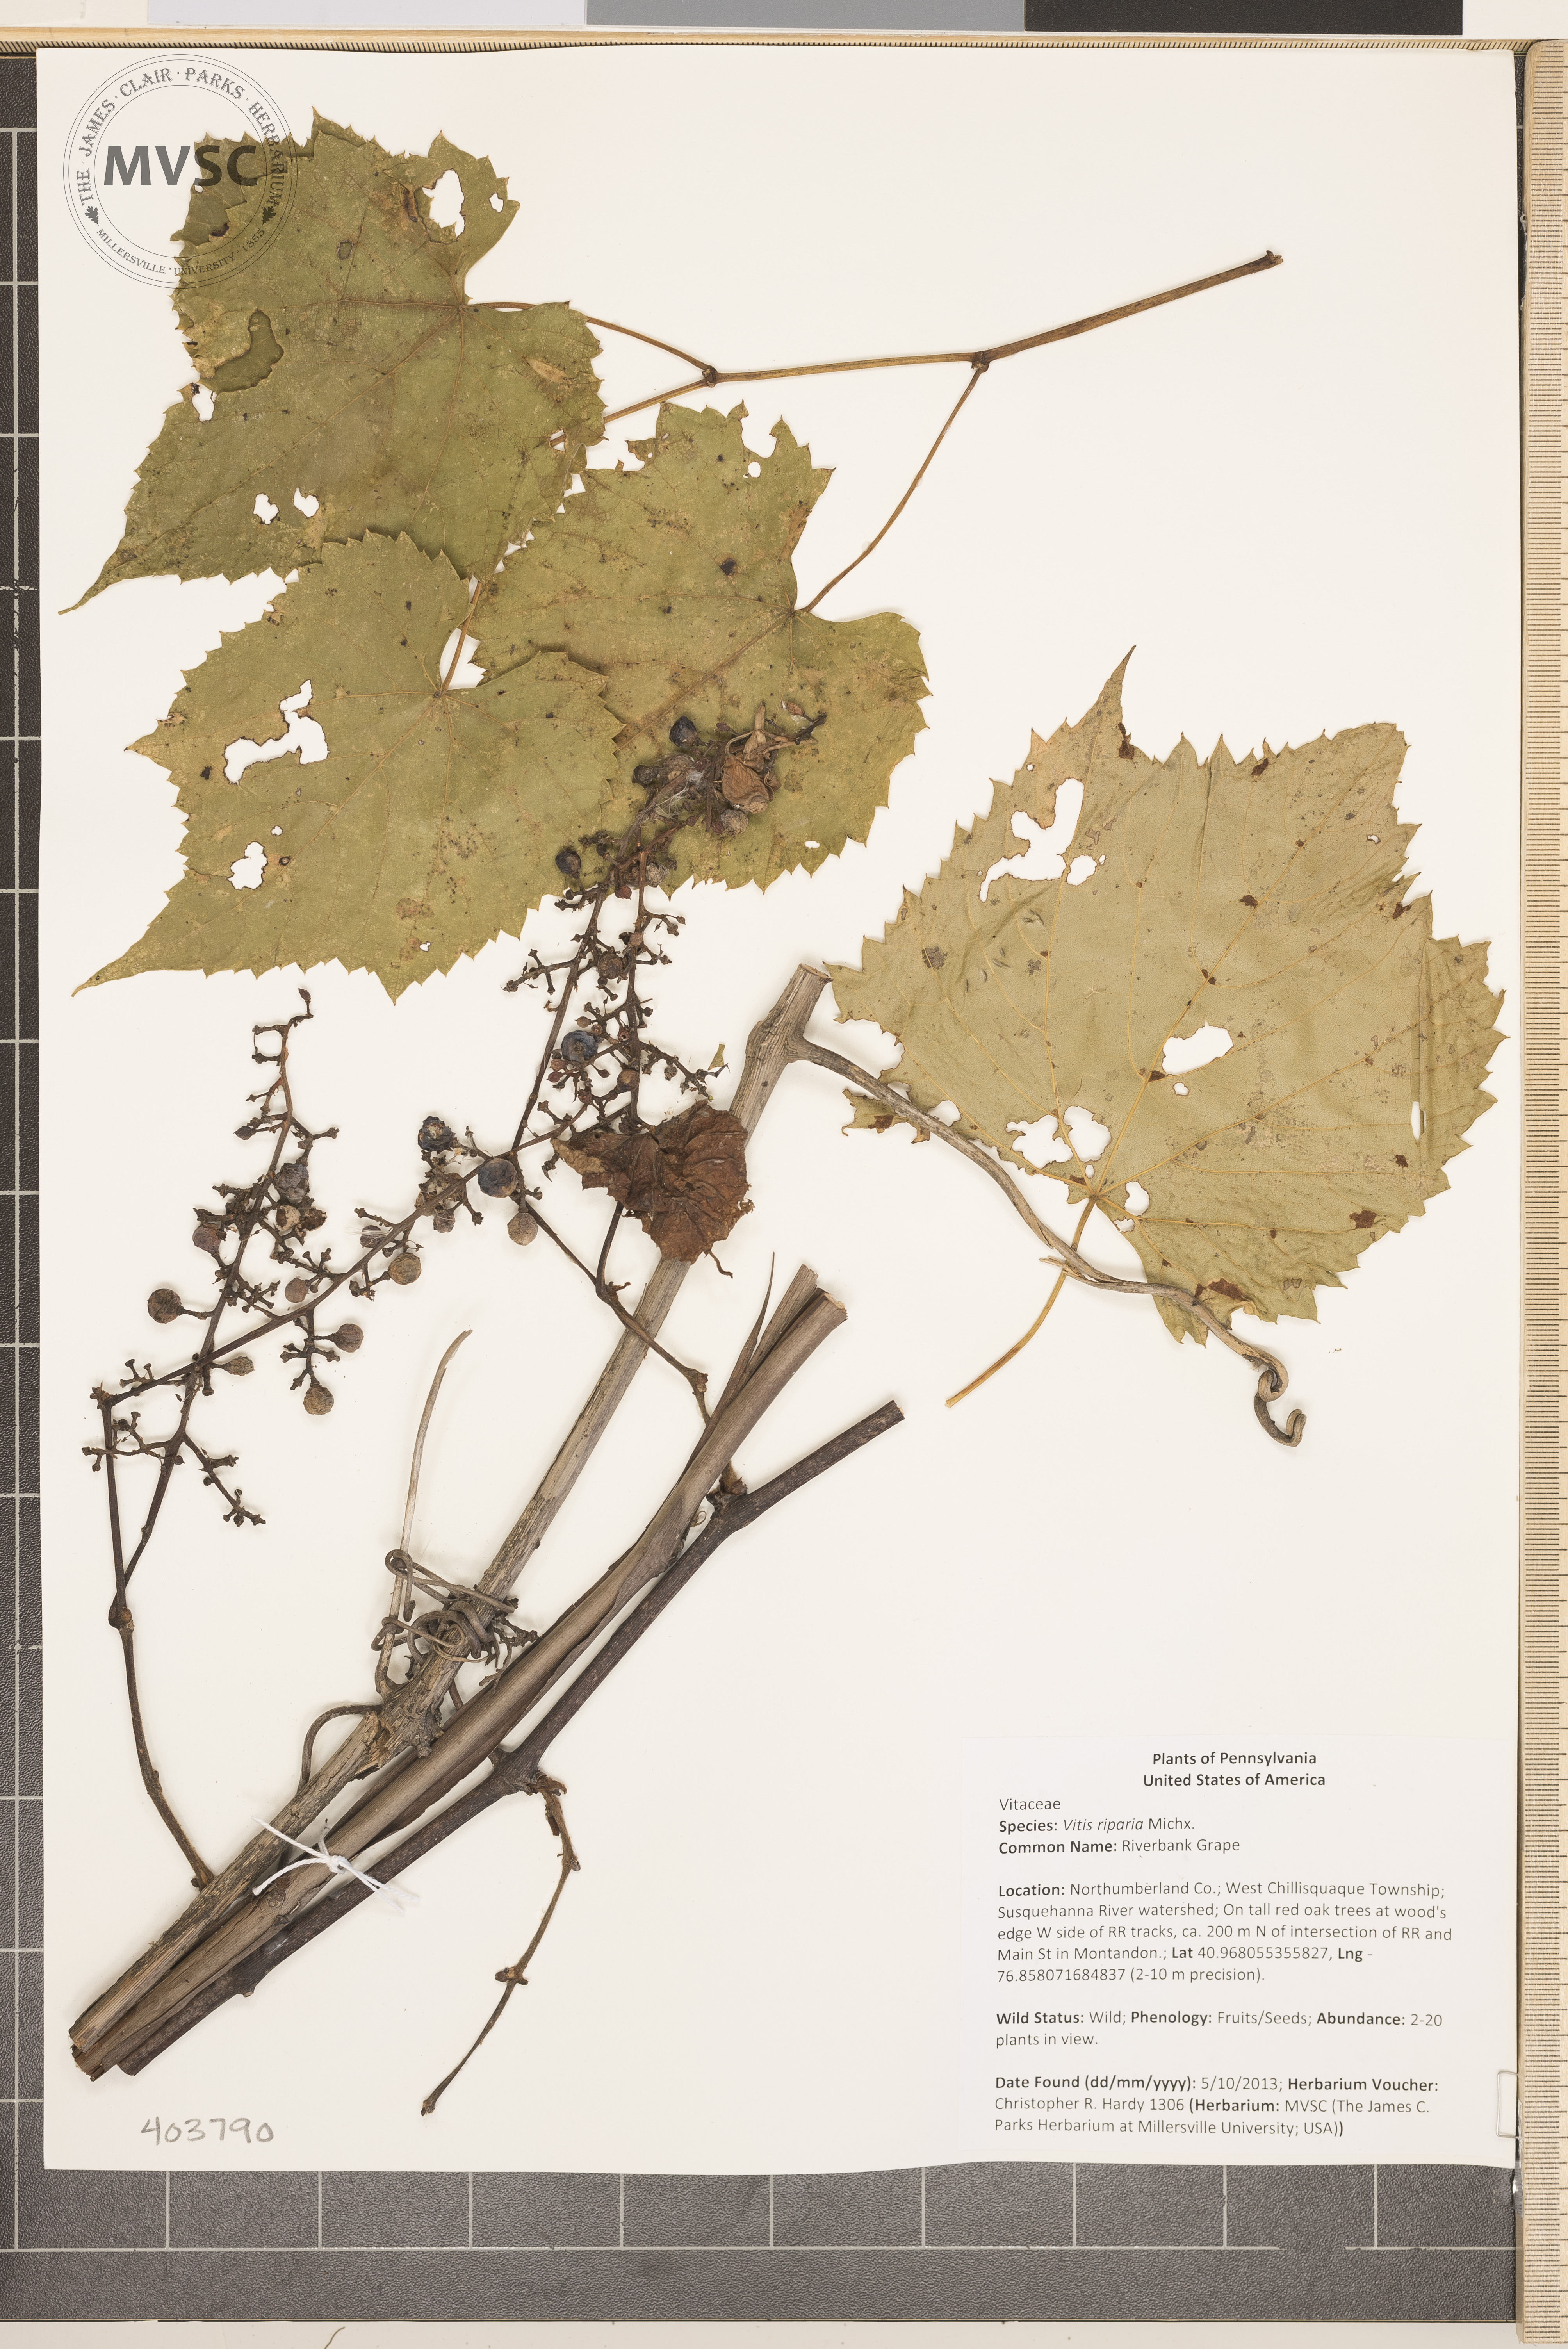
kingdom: Plantae
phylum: Tracheophyta
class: Magnoliopsida
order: Vitales
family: Vitaceae
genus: Vitis
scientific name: Vitis riparia
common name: Riverbank Grape
